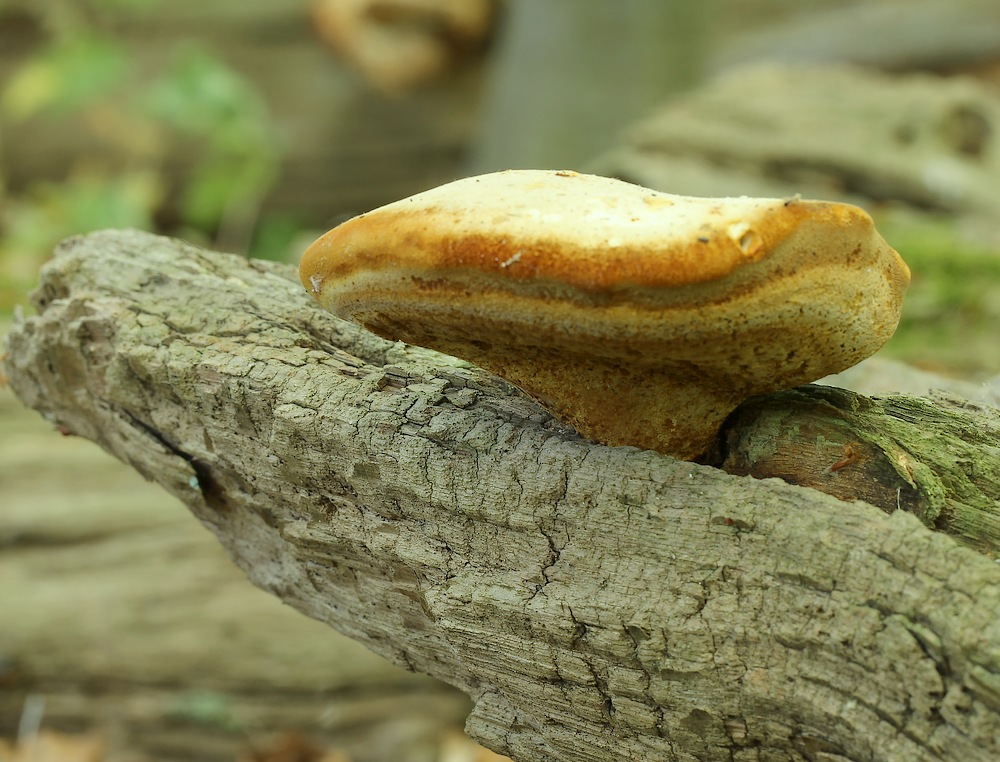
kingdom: Fungi
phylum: Basidiomycota
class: Agaricomycetes
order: Polyporales
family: Fomitopsidaceae
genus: Buglossoporus
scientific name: Buglossoporus quercinus
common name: egetunge
